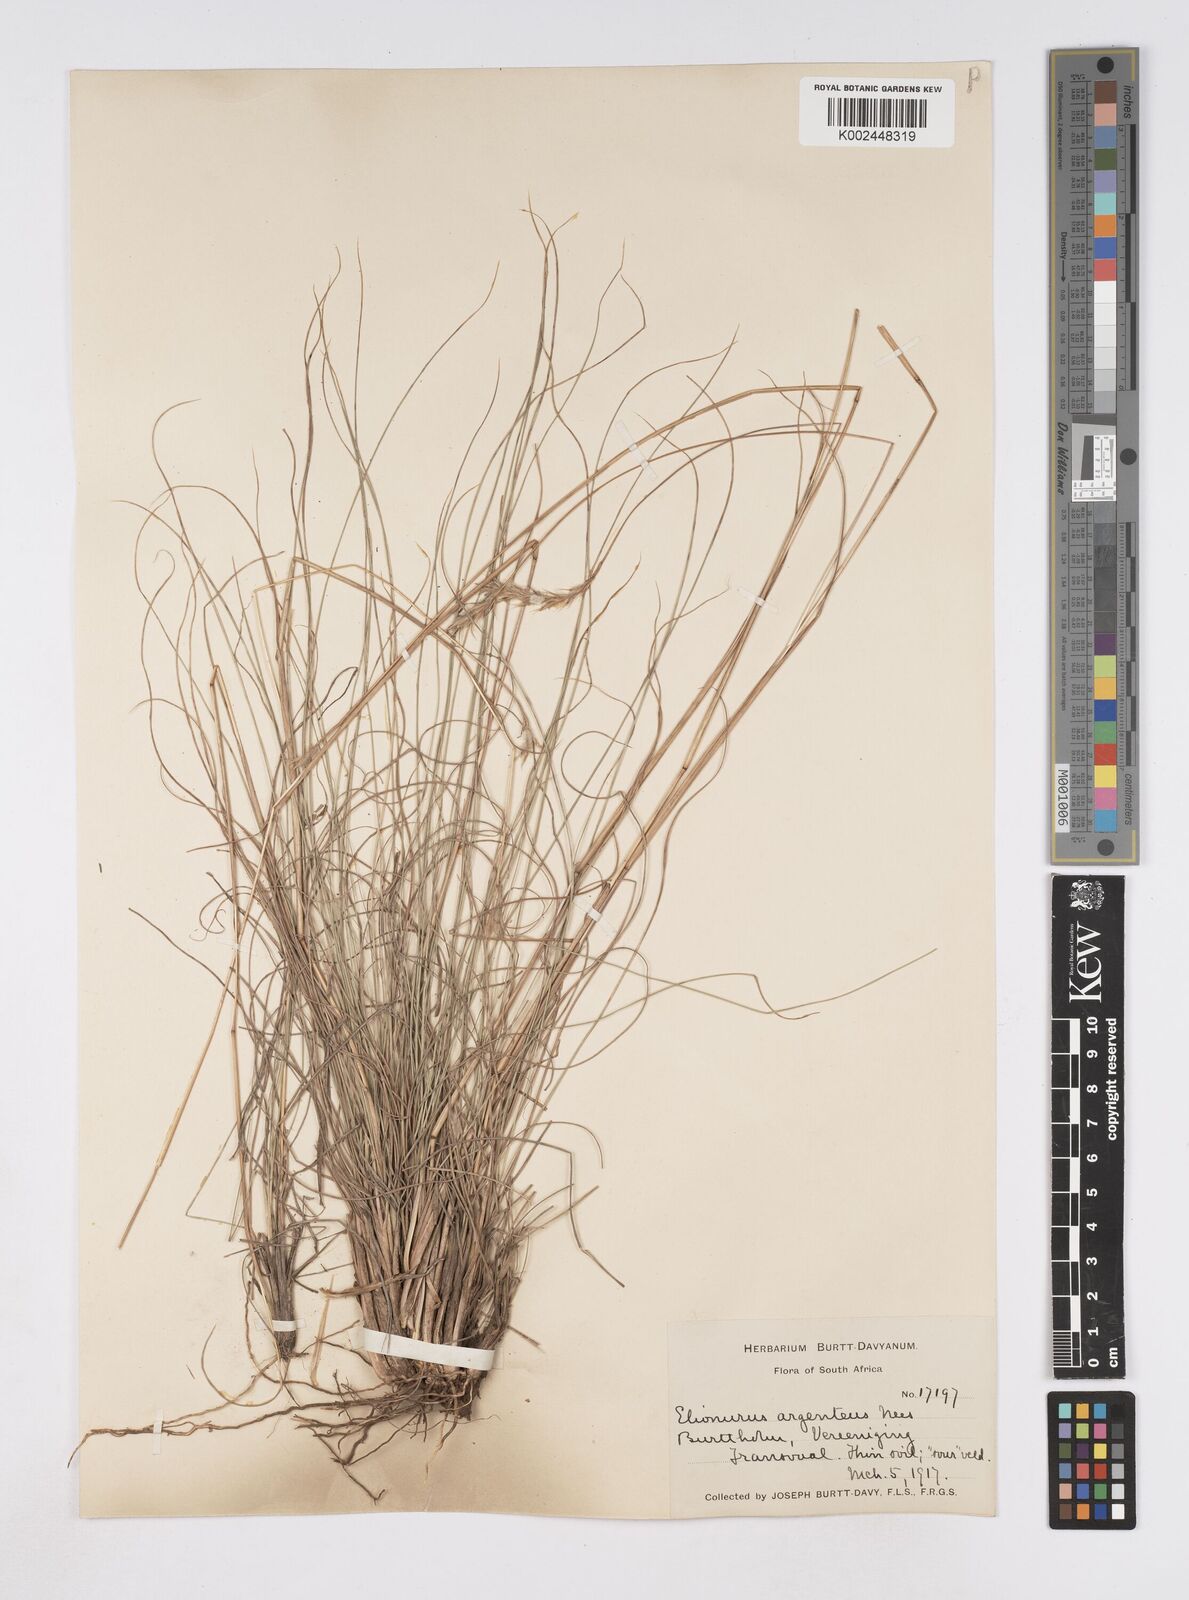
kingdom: Plantae
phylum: Tracheophyta
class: Liliopsida
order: Poales
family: Poaceae
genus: Elionurus
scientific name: Elionurus muticus
